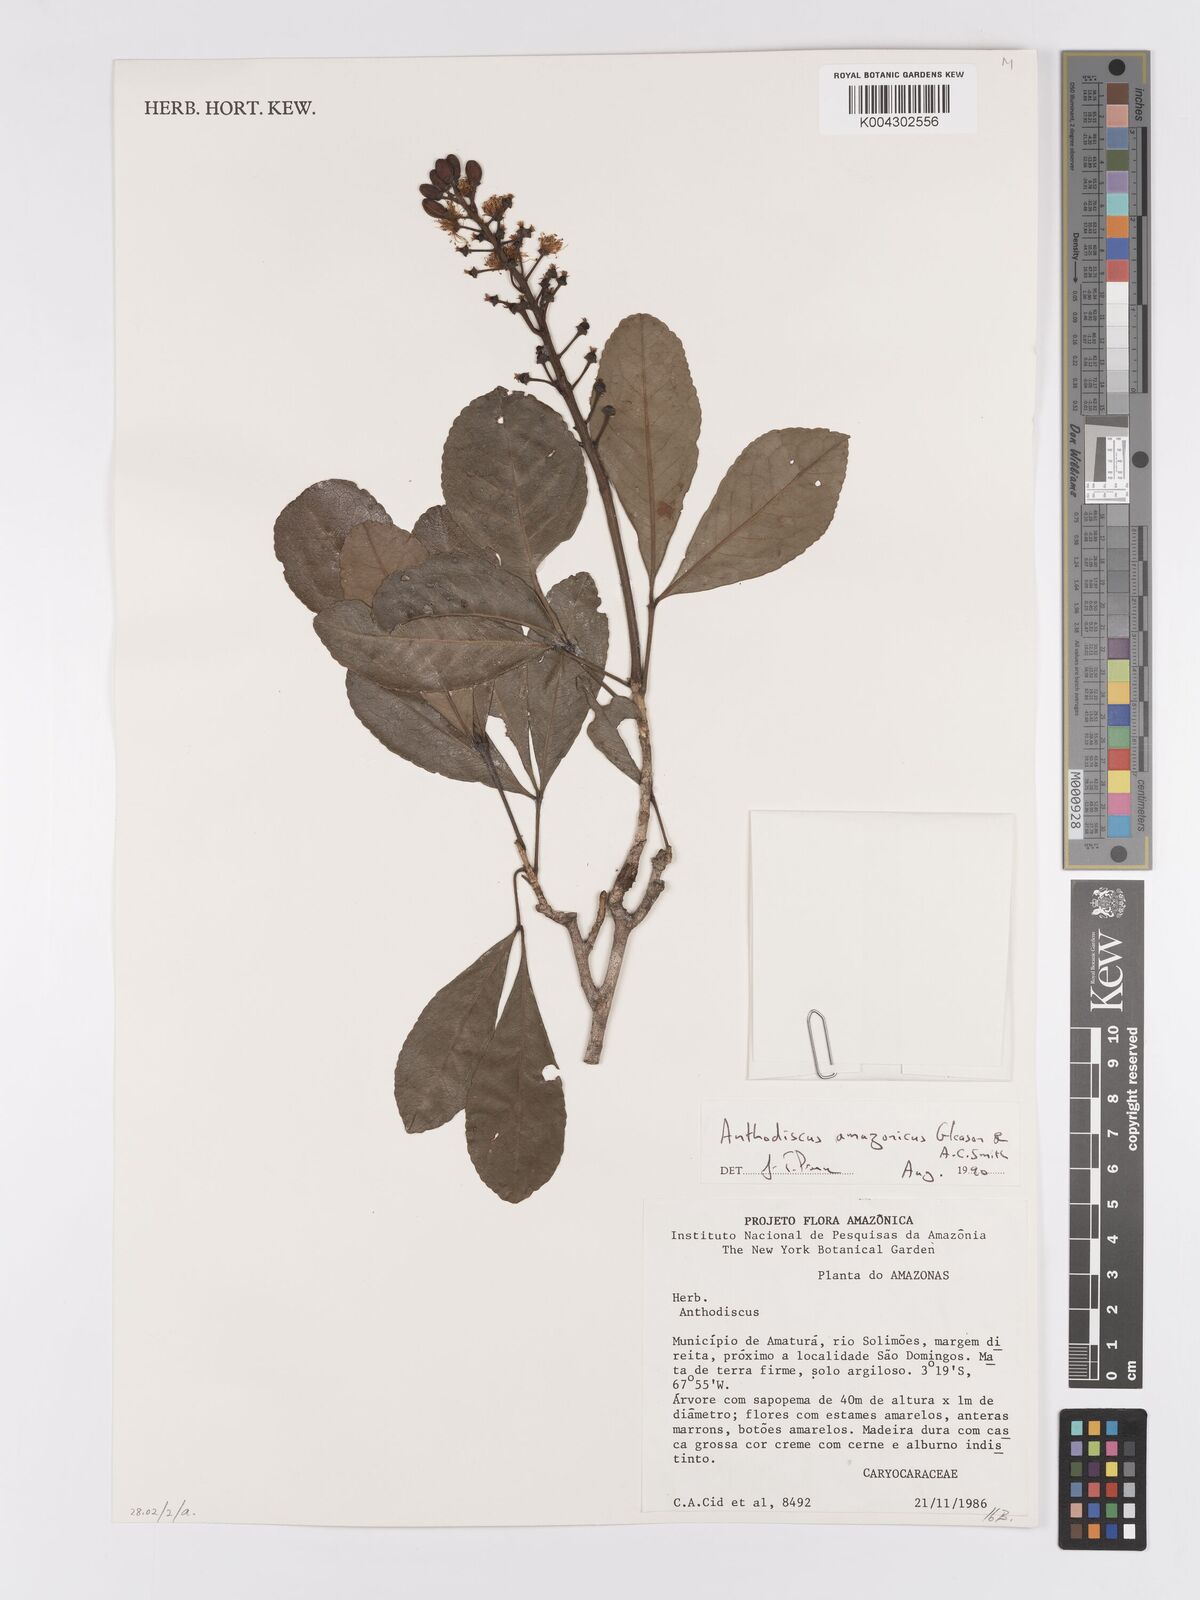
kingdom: Plantae
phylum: Tracheophyta
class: Magnoliopsida
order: Malpighiales
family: Caryocaraceae
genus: Anthodiscus
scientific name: Anthodiscus amazonicus
